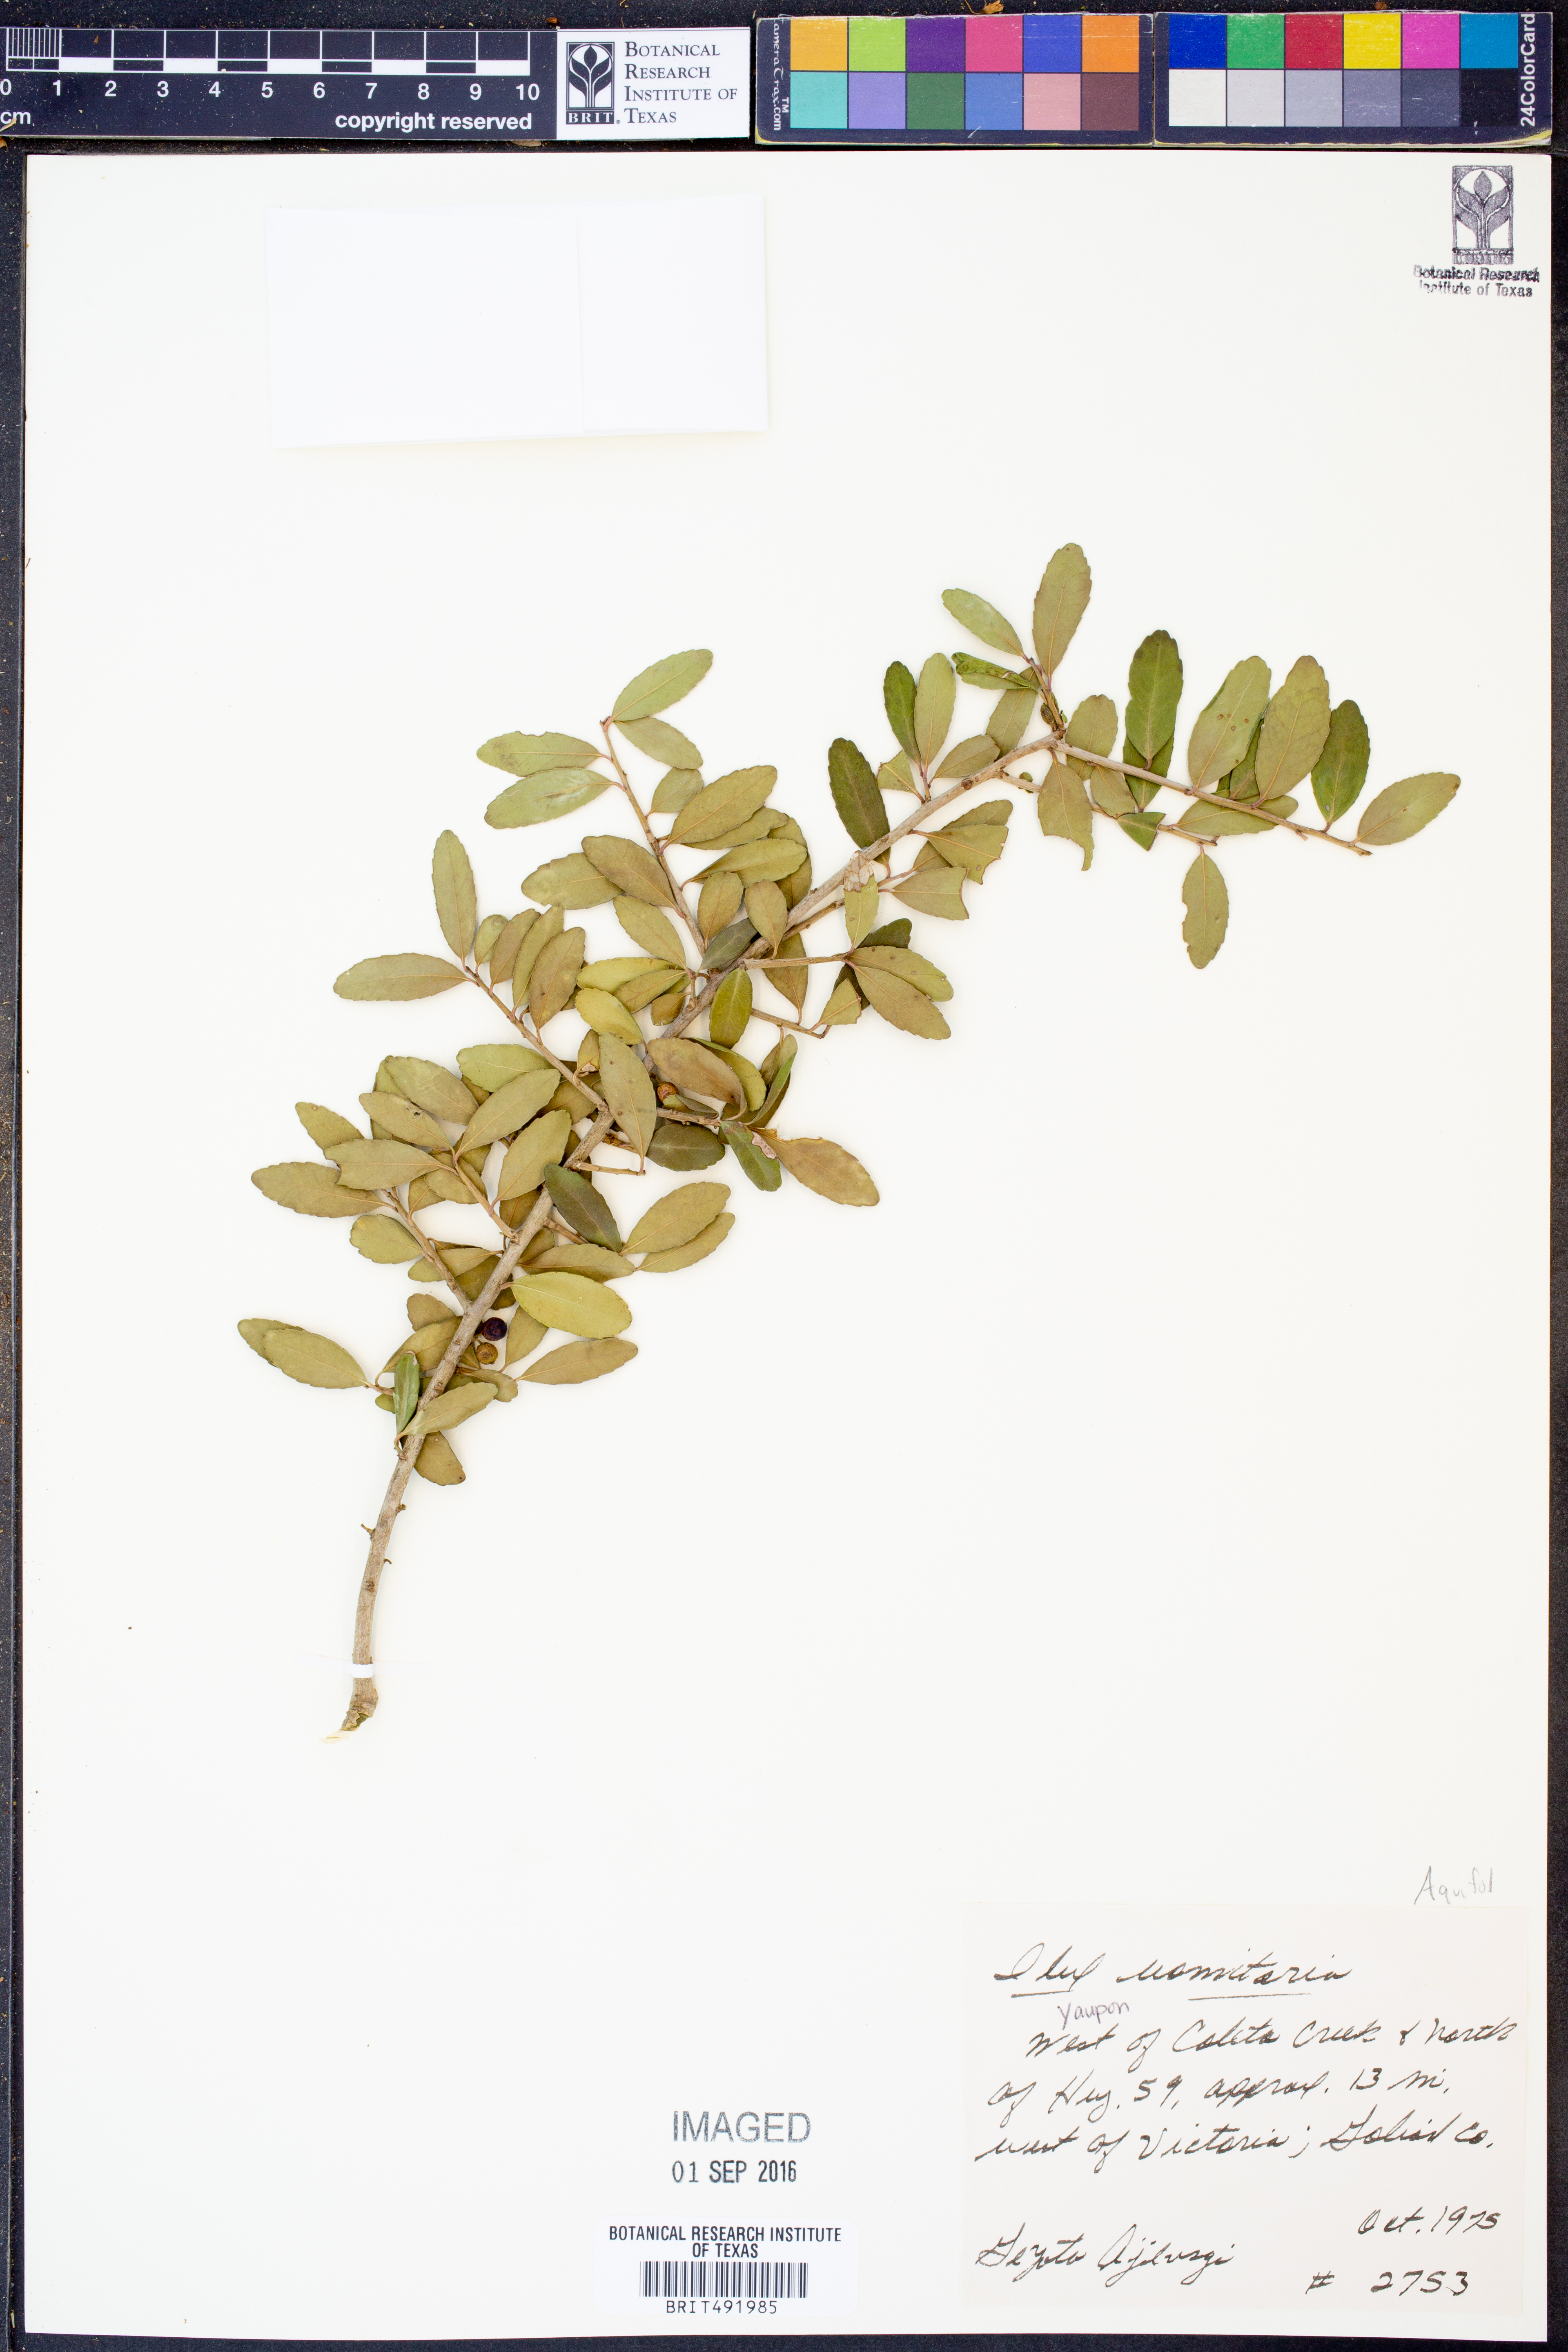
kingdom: Plantae
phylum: Tracheophyta
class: Magnoliopsida
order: Aquifoliales
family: Aquifoliaceae
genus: Ilex
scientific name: Ilex vomitoria
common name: Yaupon holly
